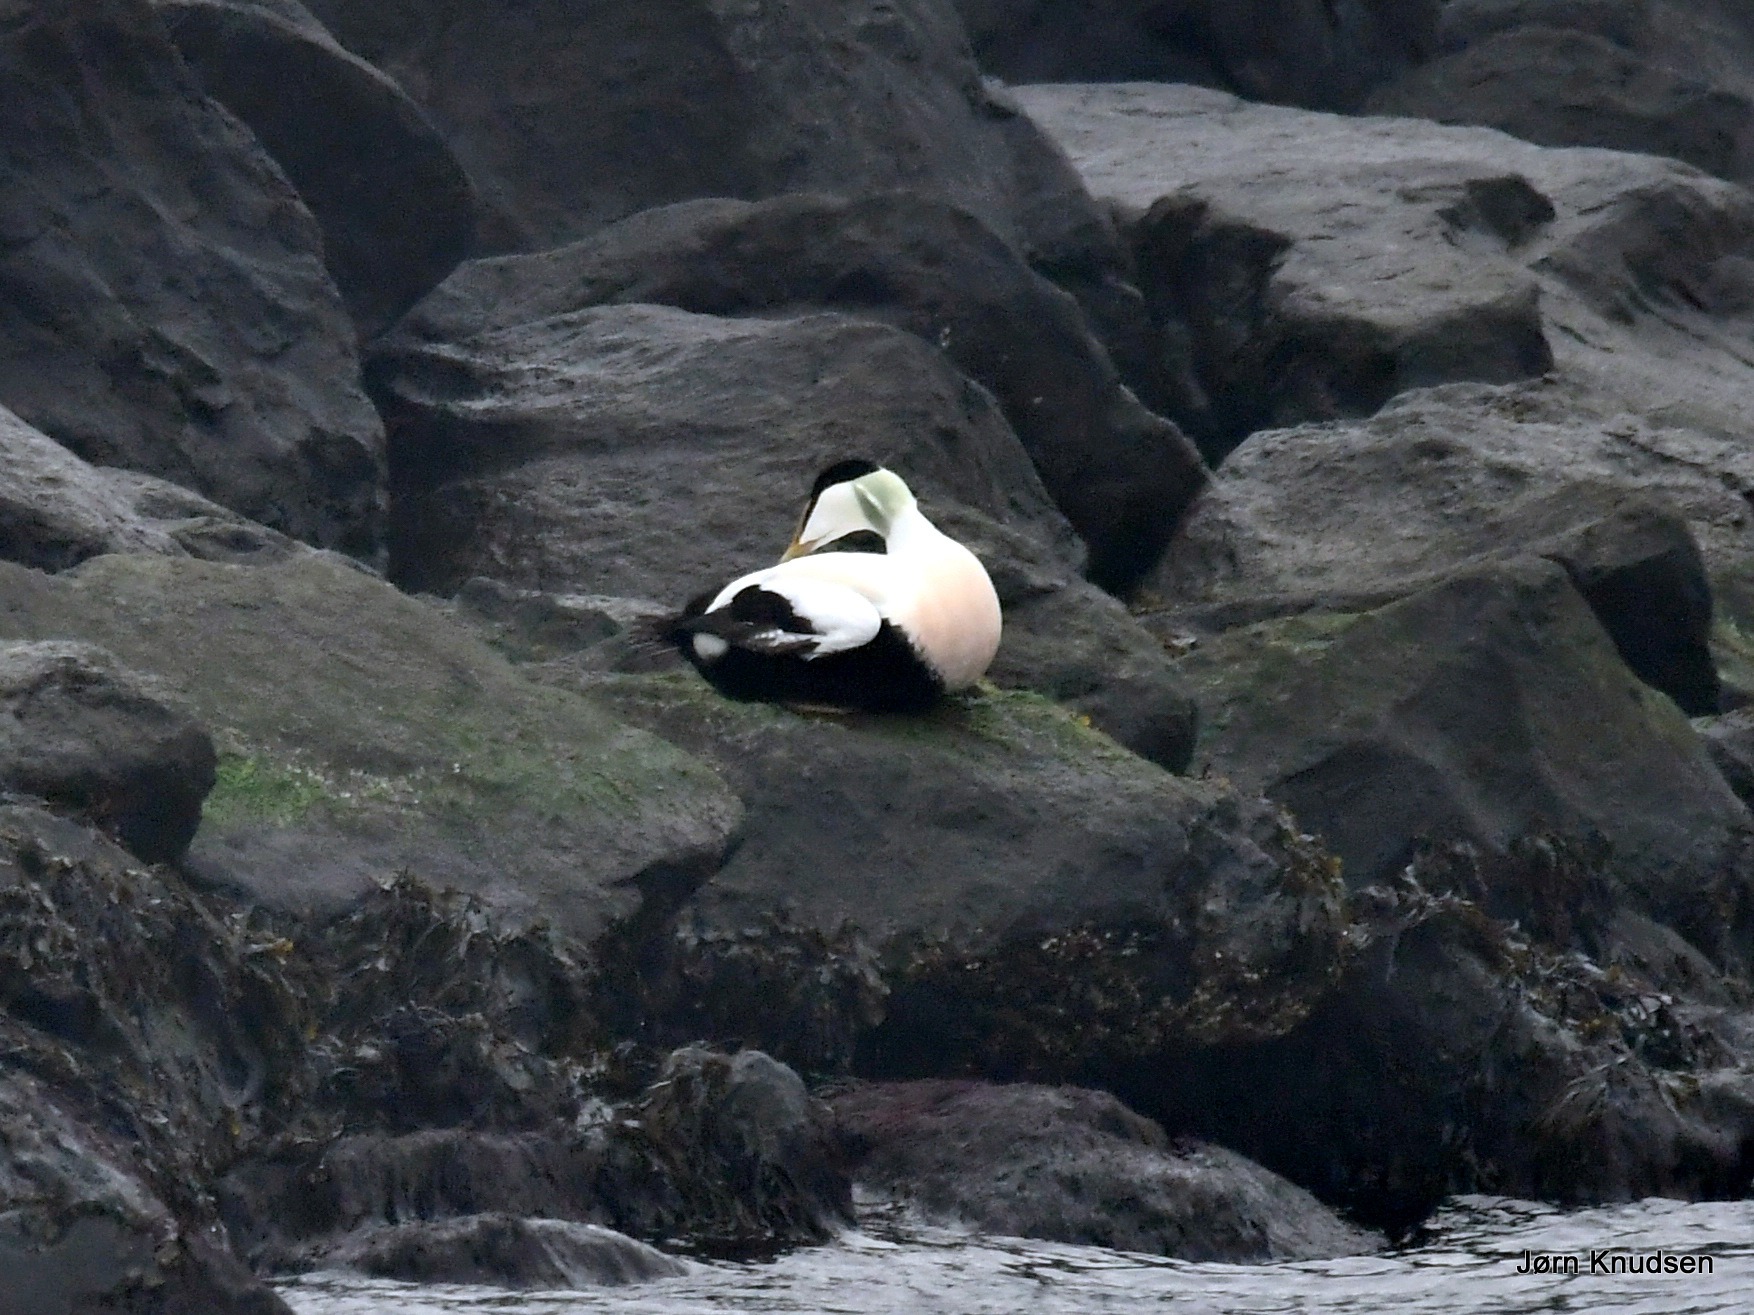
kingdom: Animalia
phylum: Chordata
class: Aves
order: Anseriformes
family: Anatidae
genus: Somateria
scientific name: Somateria mollissima
